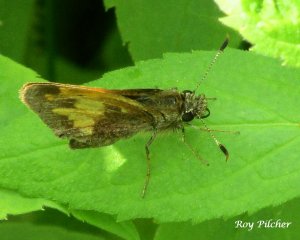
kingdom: Animalia
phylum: Arthropoda
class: Insecta
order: Lepidoptera
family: Hesperiidae
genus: Lon
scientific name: Lon hobomok
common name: Hobomok Skipper
